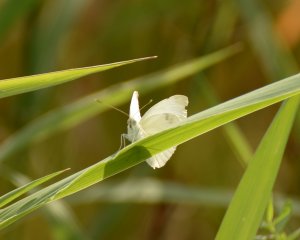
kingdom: Animalia
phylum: Arthropoda
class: Insecta
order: Lepidoptera
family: Pieridae
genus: Pieris
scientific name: Pieris rapae
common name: Cabbage White
